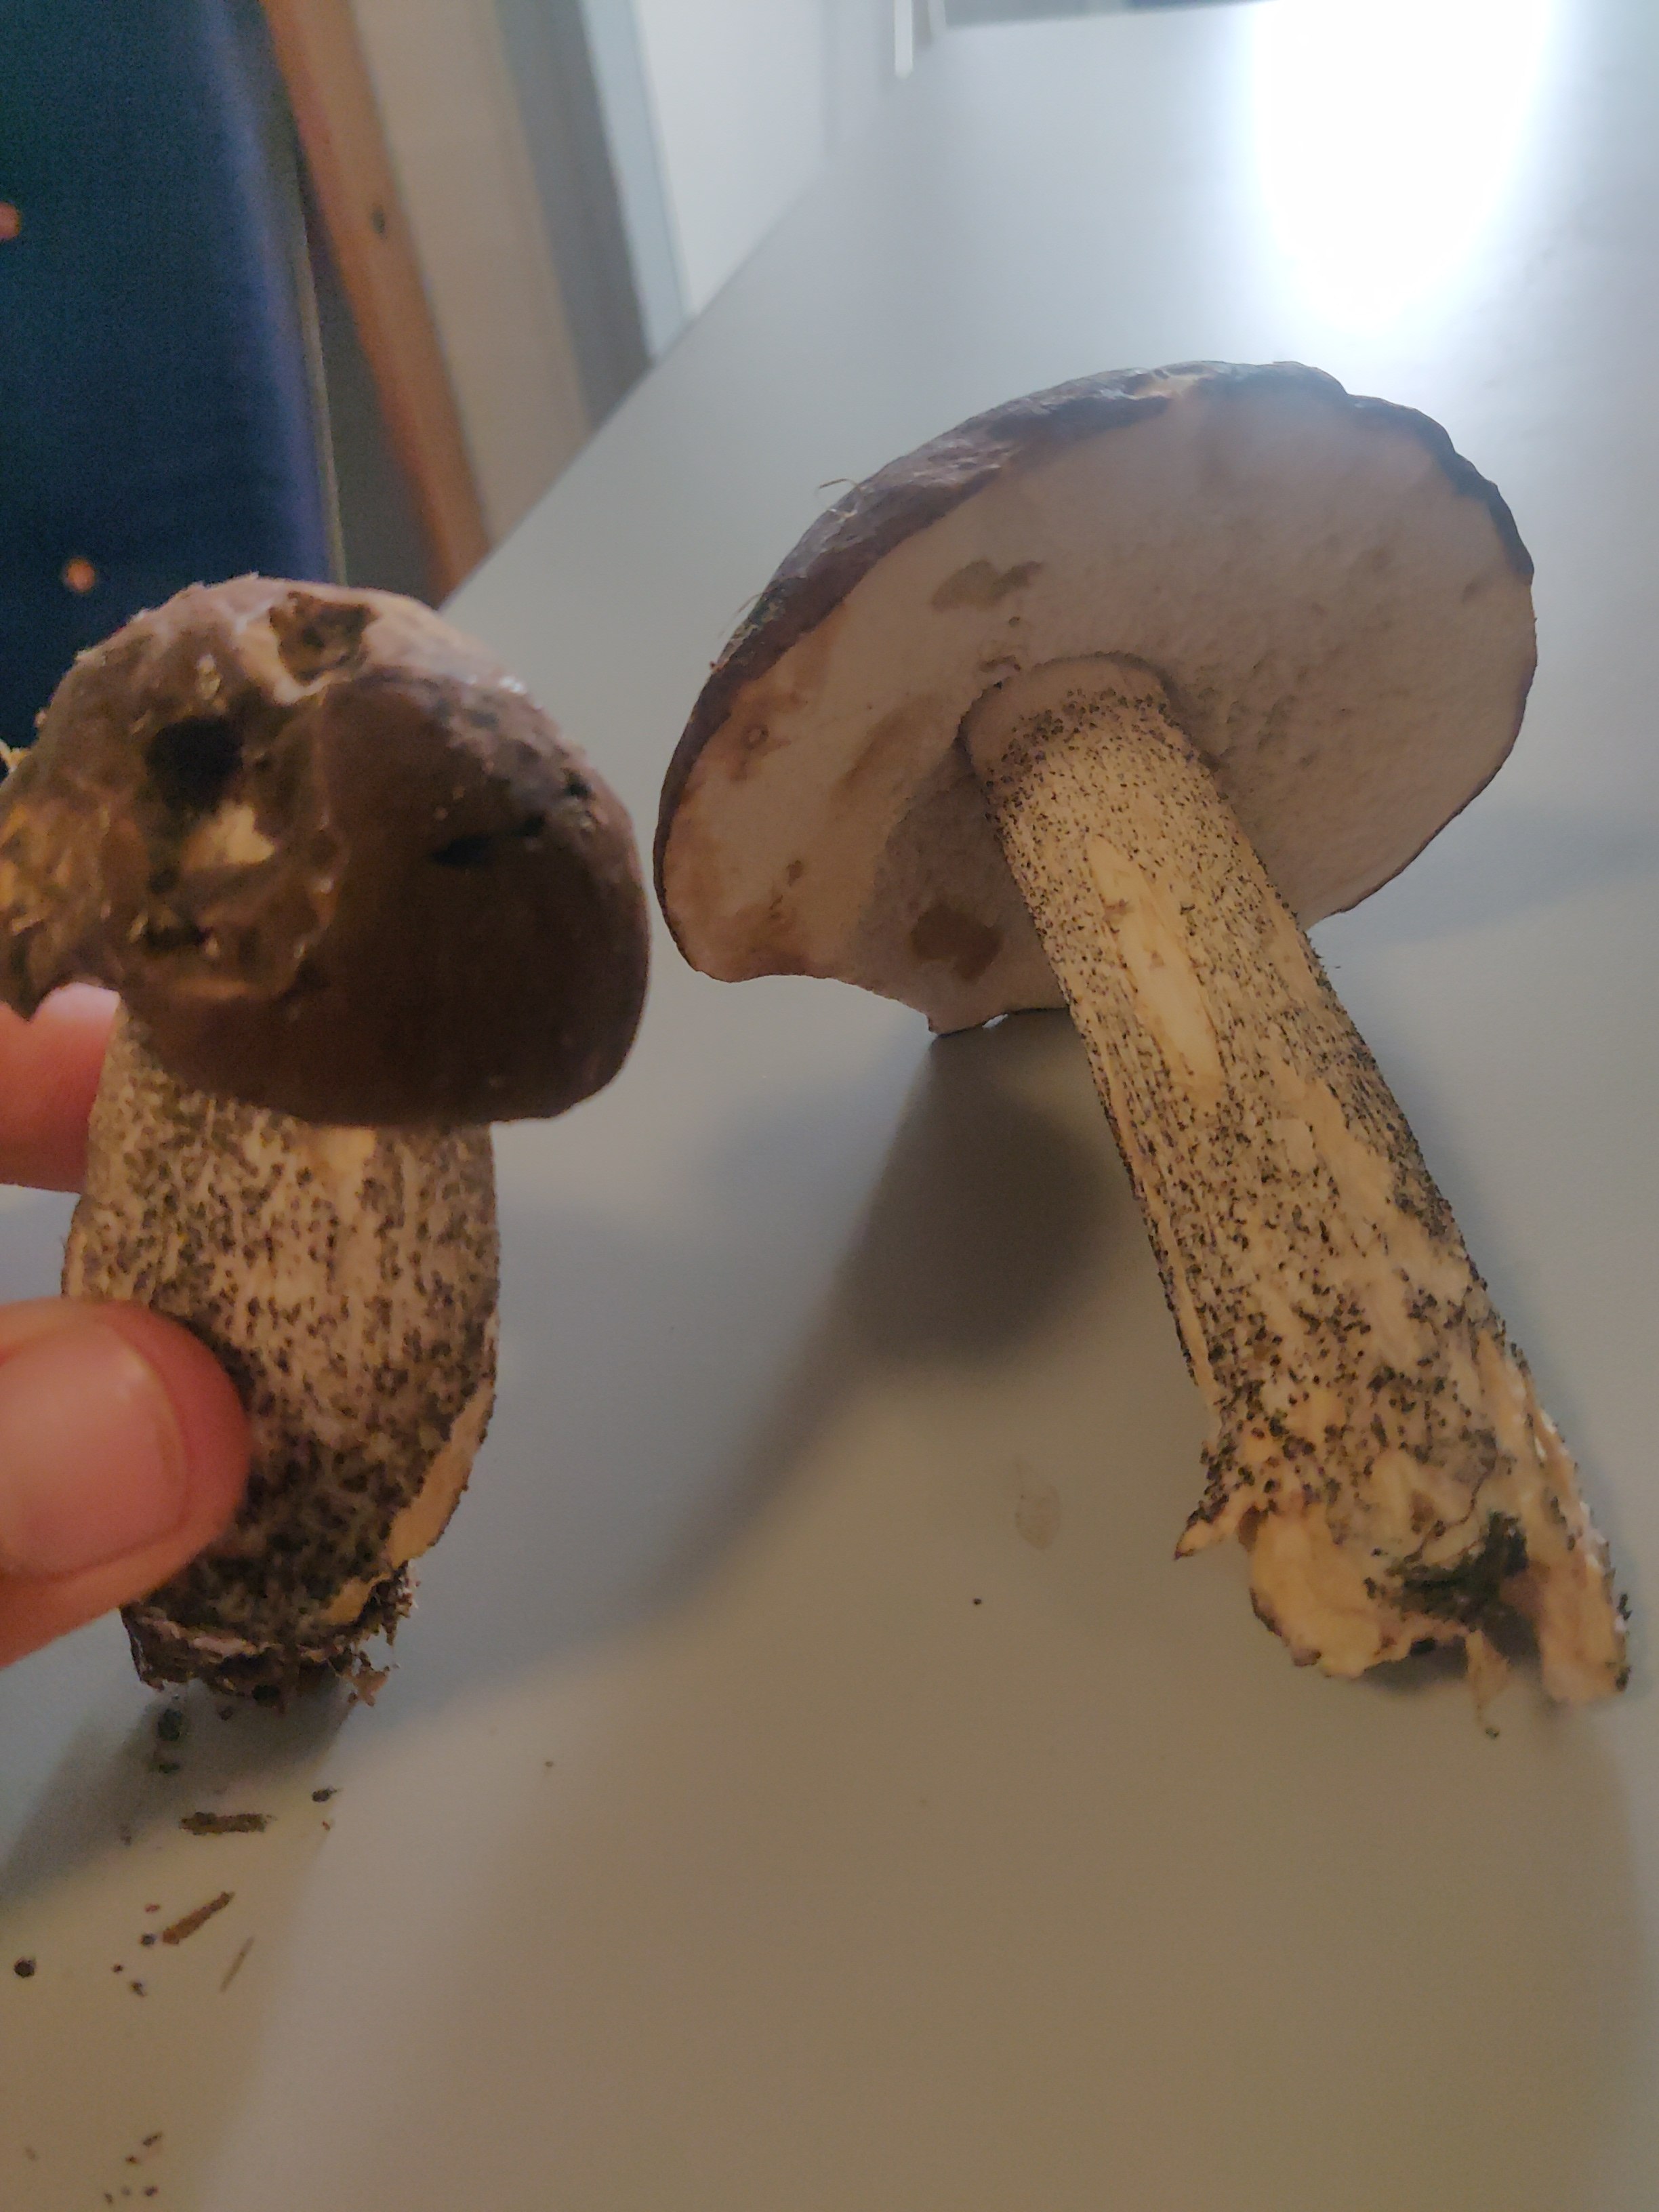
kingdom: Fungi
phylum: Basidiomycota
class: Agaricomycetes
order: Boletales
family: Boletaceae
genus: Leccinum
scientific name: Leccinum scabrum
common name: brun skælrørhat
